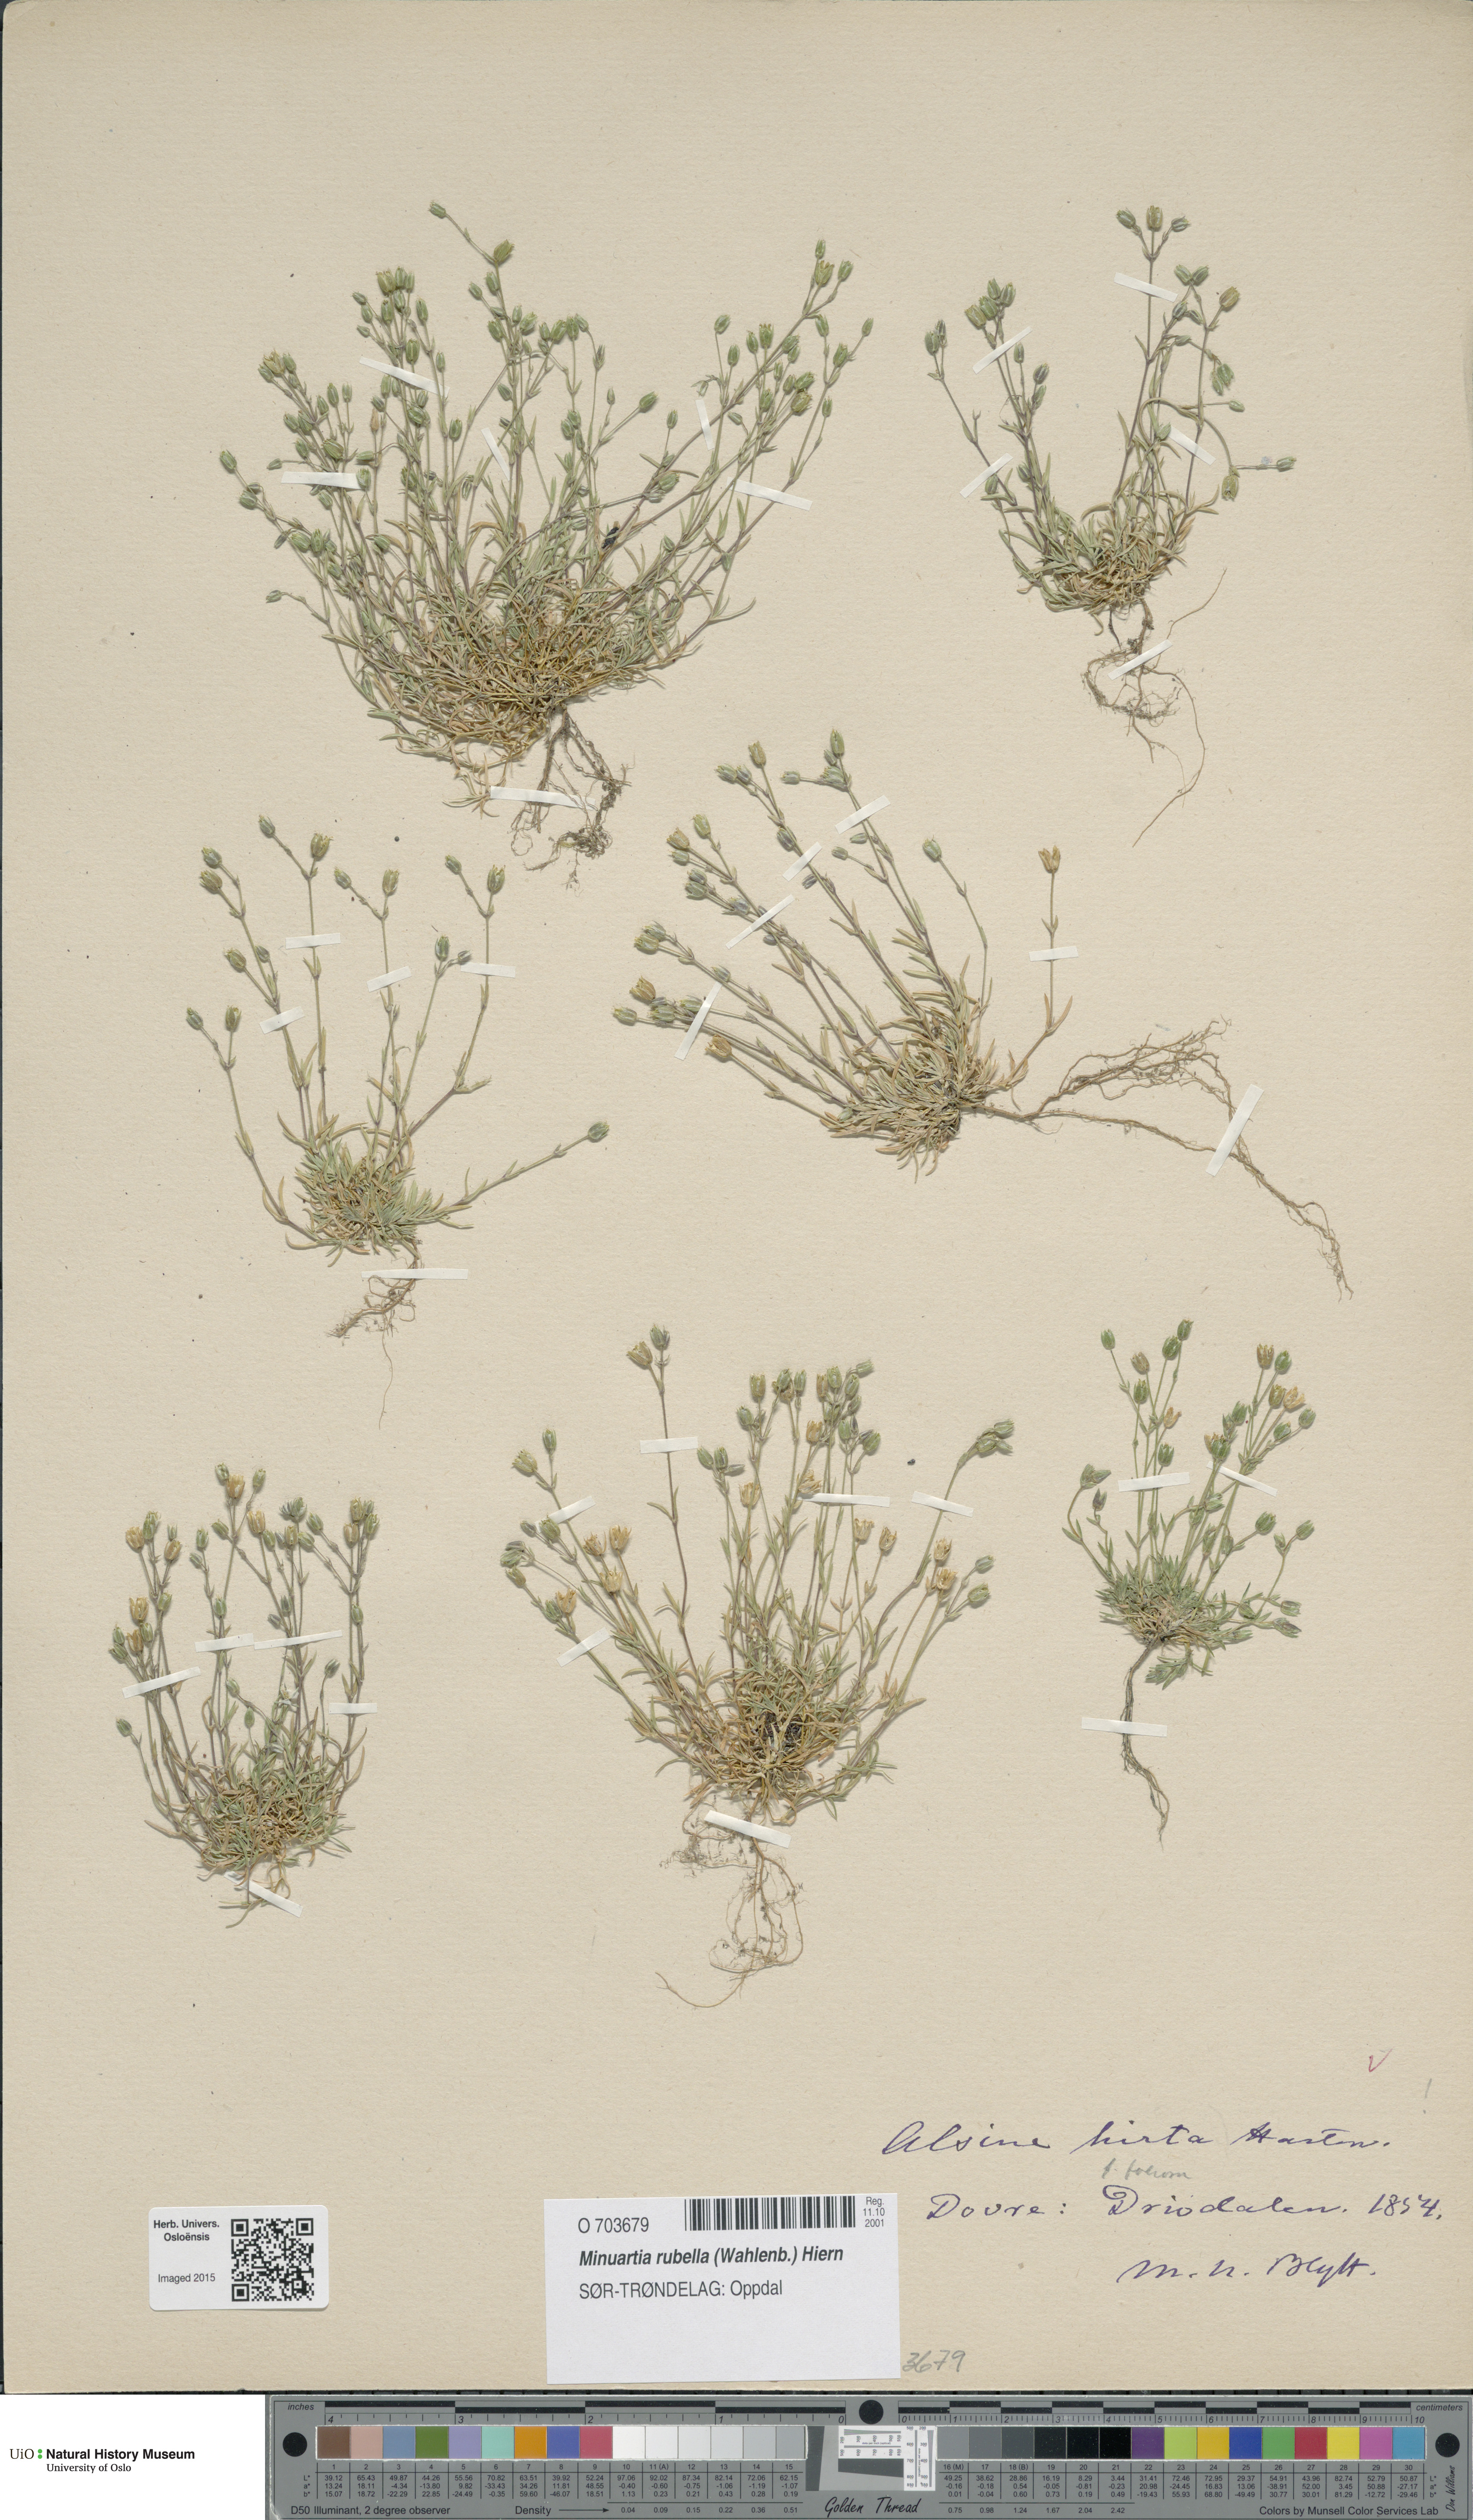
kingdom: Plantae
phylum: Tracheophyta
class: Magnoliopsida
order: Caryophyllales
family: Caryophyllaceae
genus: Sabulina
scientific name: Sabulina rubella
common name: Beautiful sandwort
